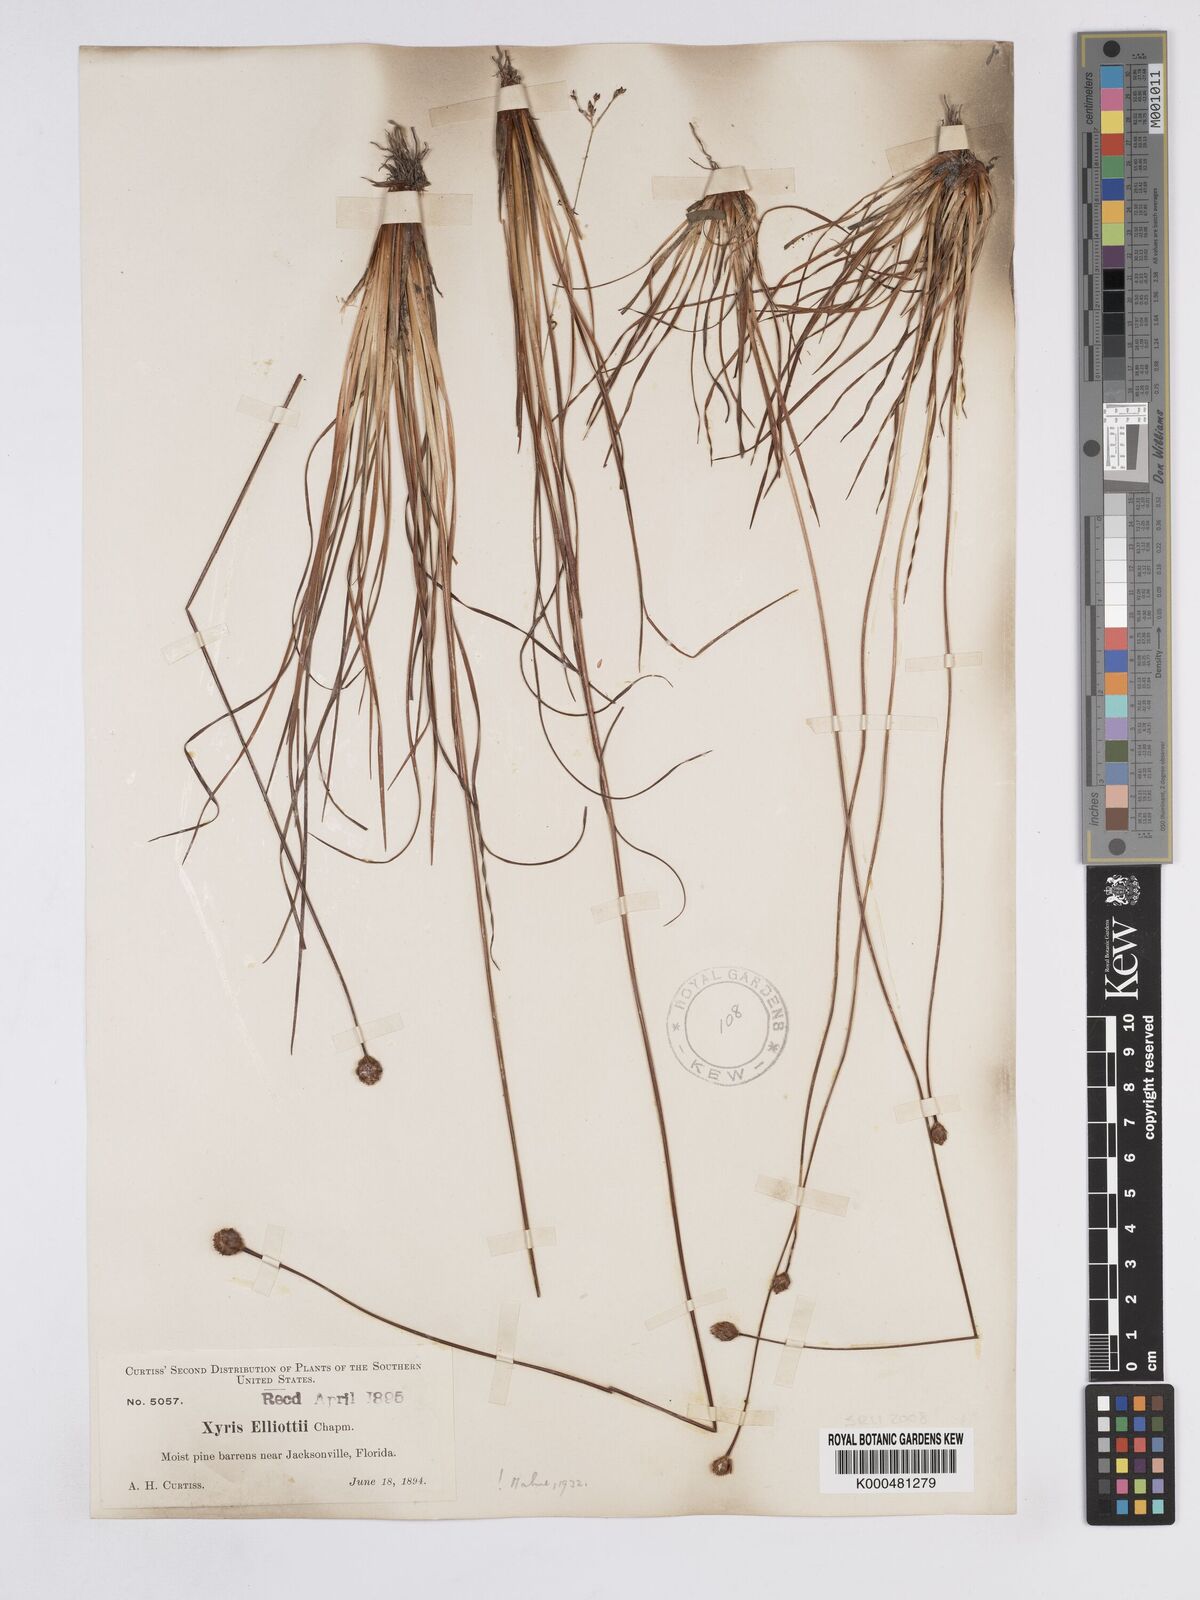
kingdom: Plantae
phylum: Tracheophyta
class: Liliopsida
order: Poales
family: Xyridaceae
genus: Xyris
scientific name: Xyris elliottii
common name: Elliot's yelloweyed grass
